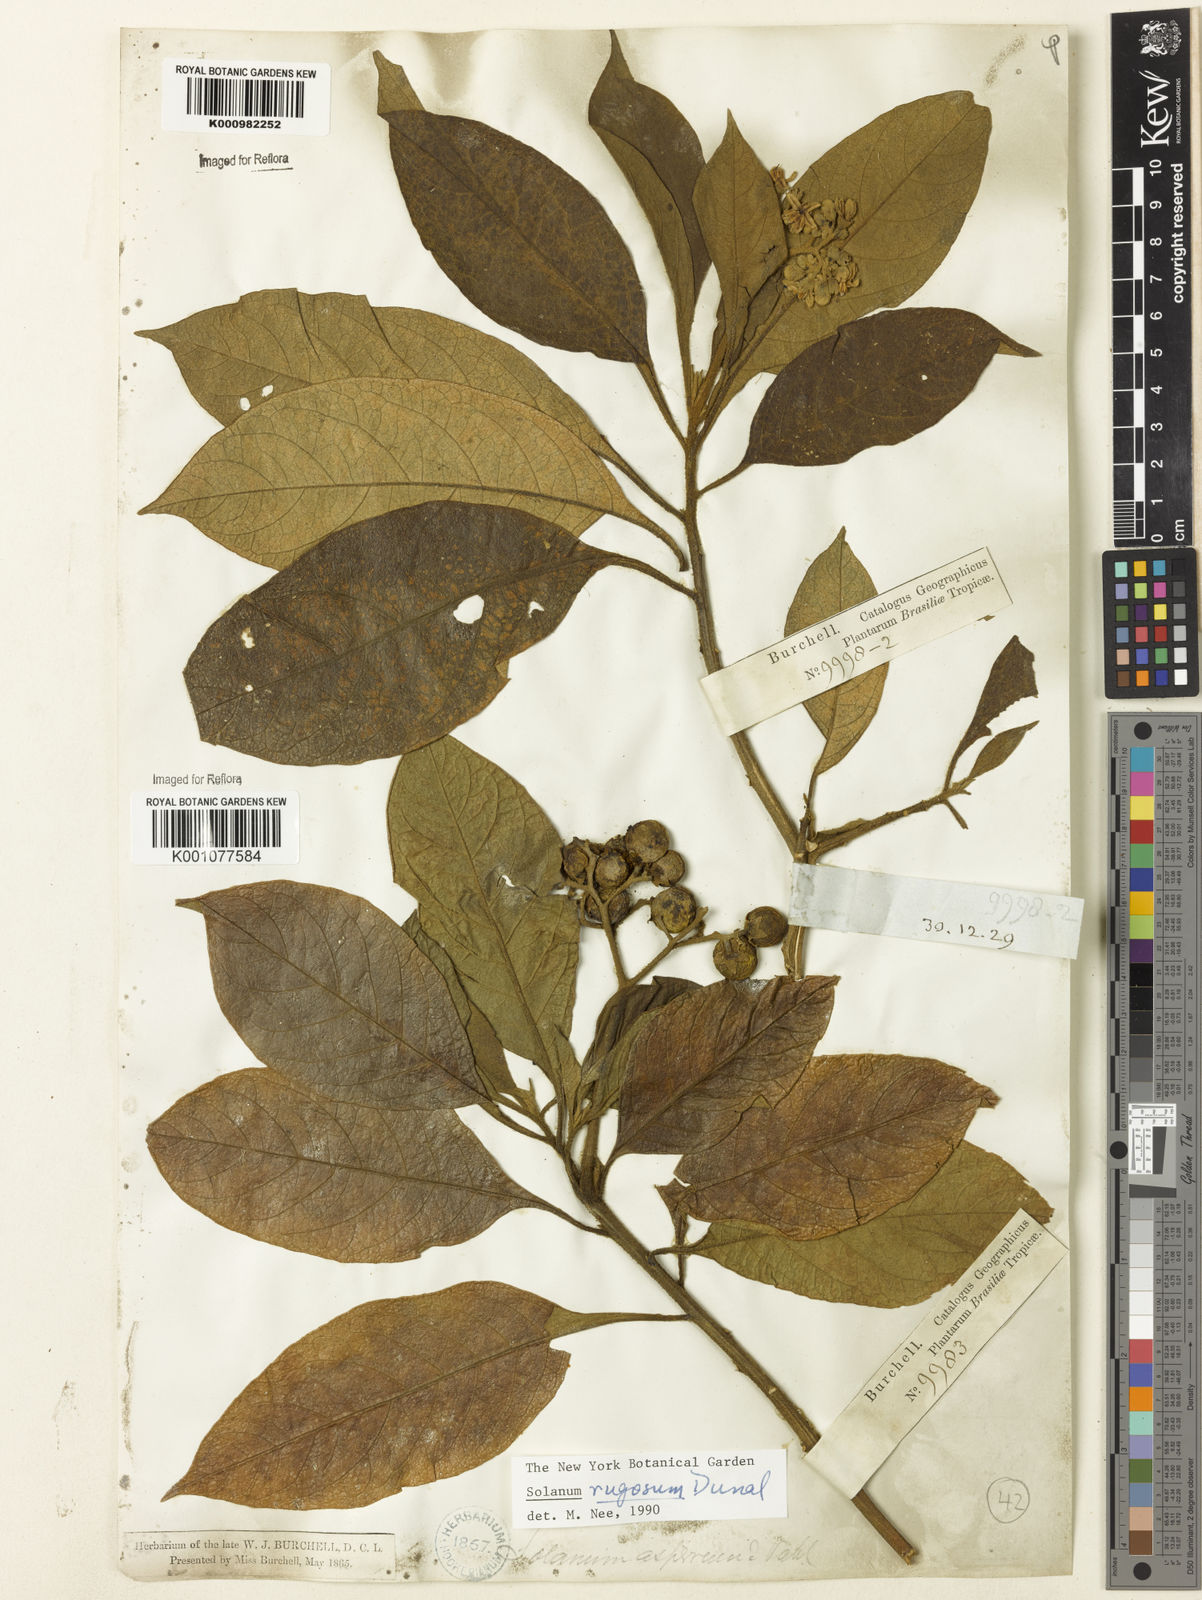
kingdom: Plantae
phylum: Tracheophyta
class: Magnoliopsida
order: Solanales
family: Solanaceae
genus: Solanum
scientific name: Solanum rugosum
